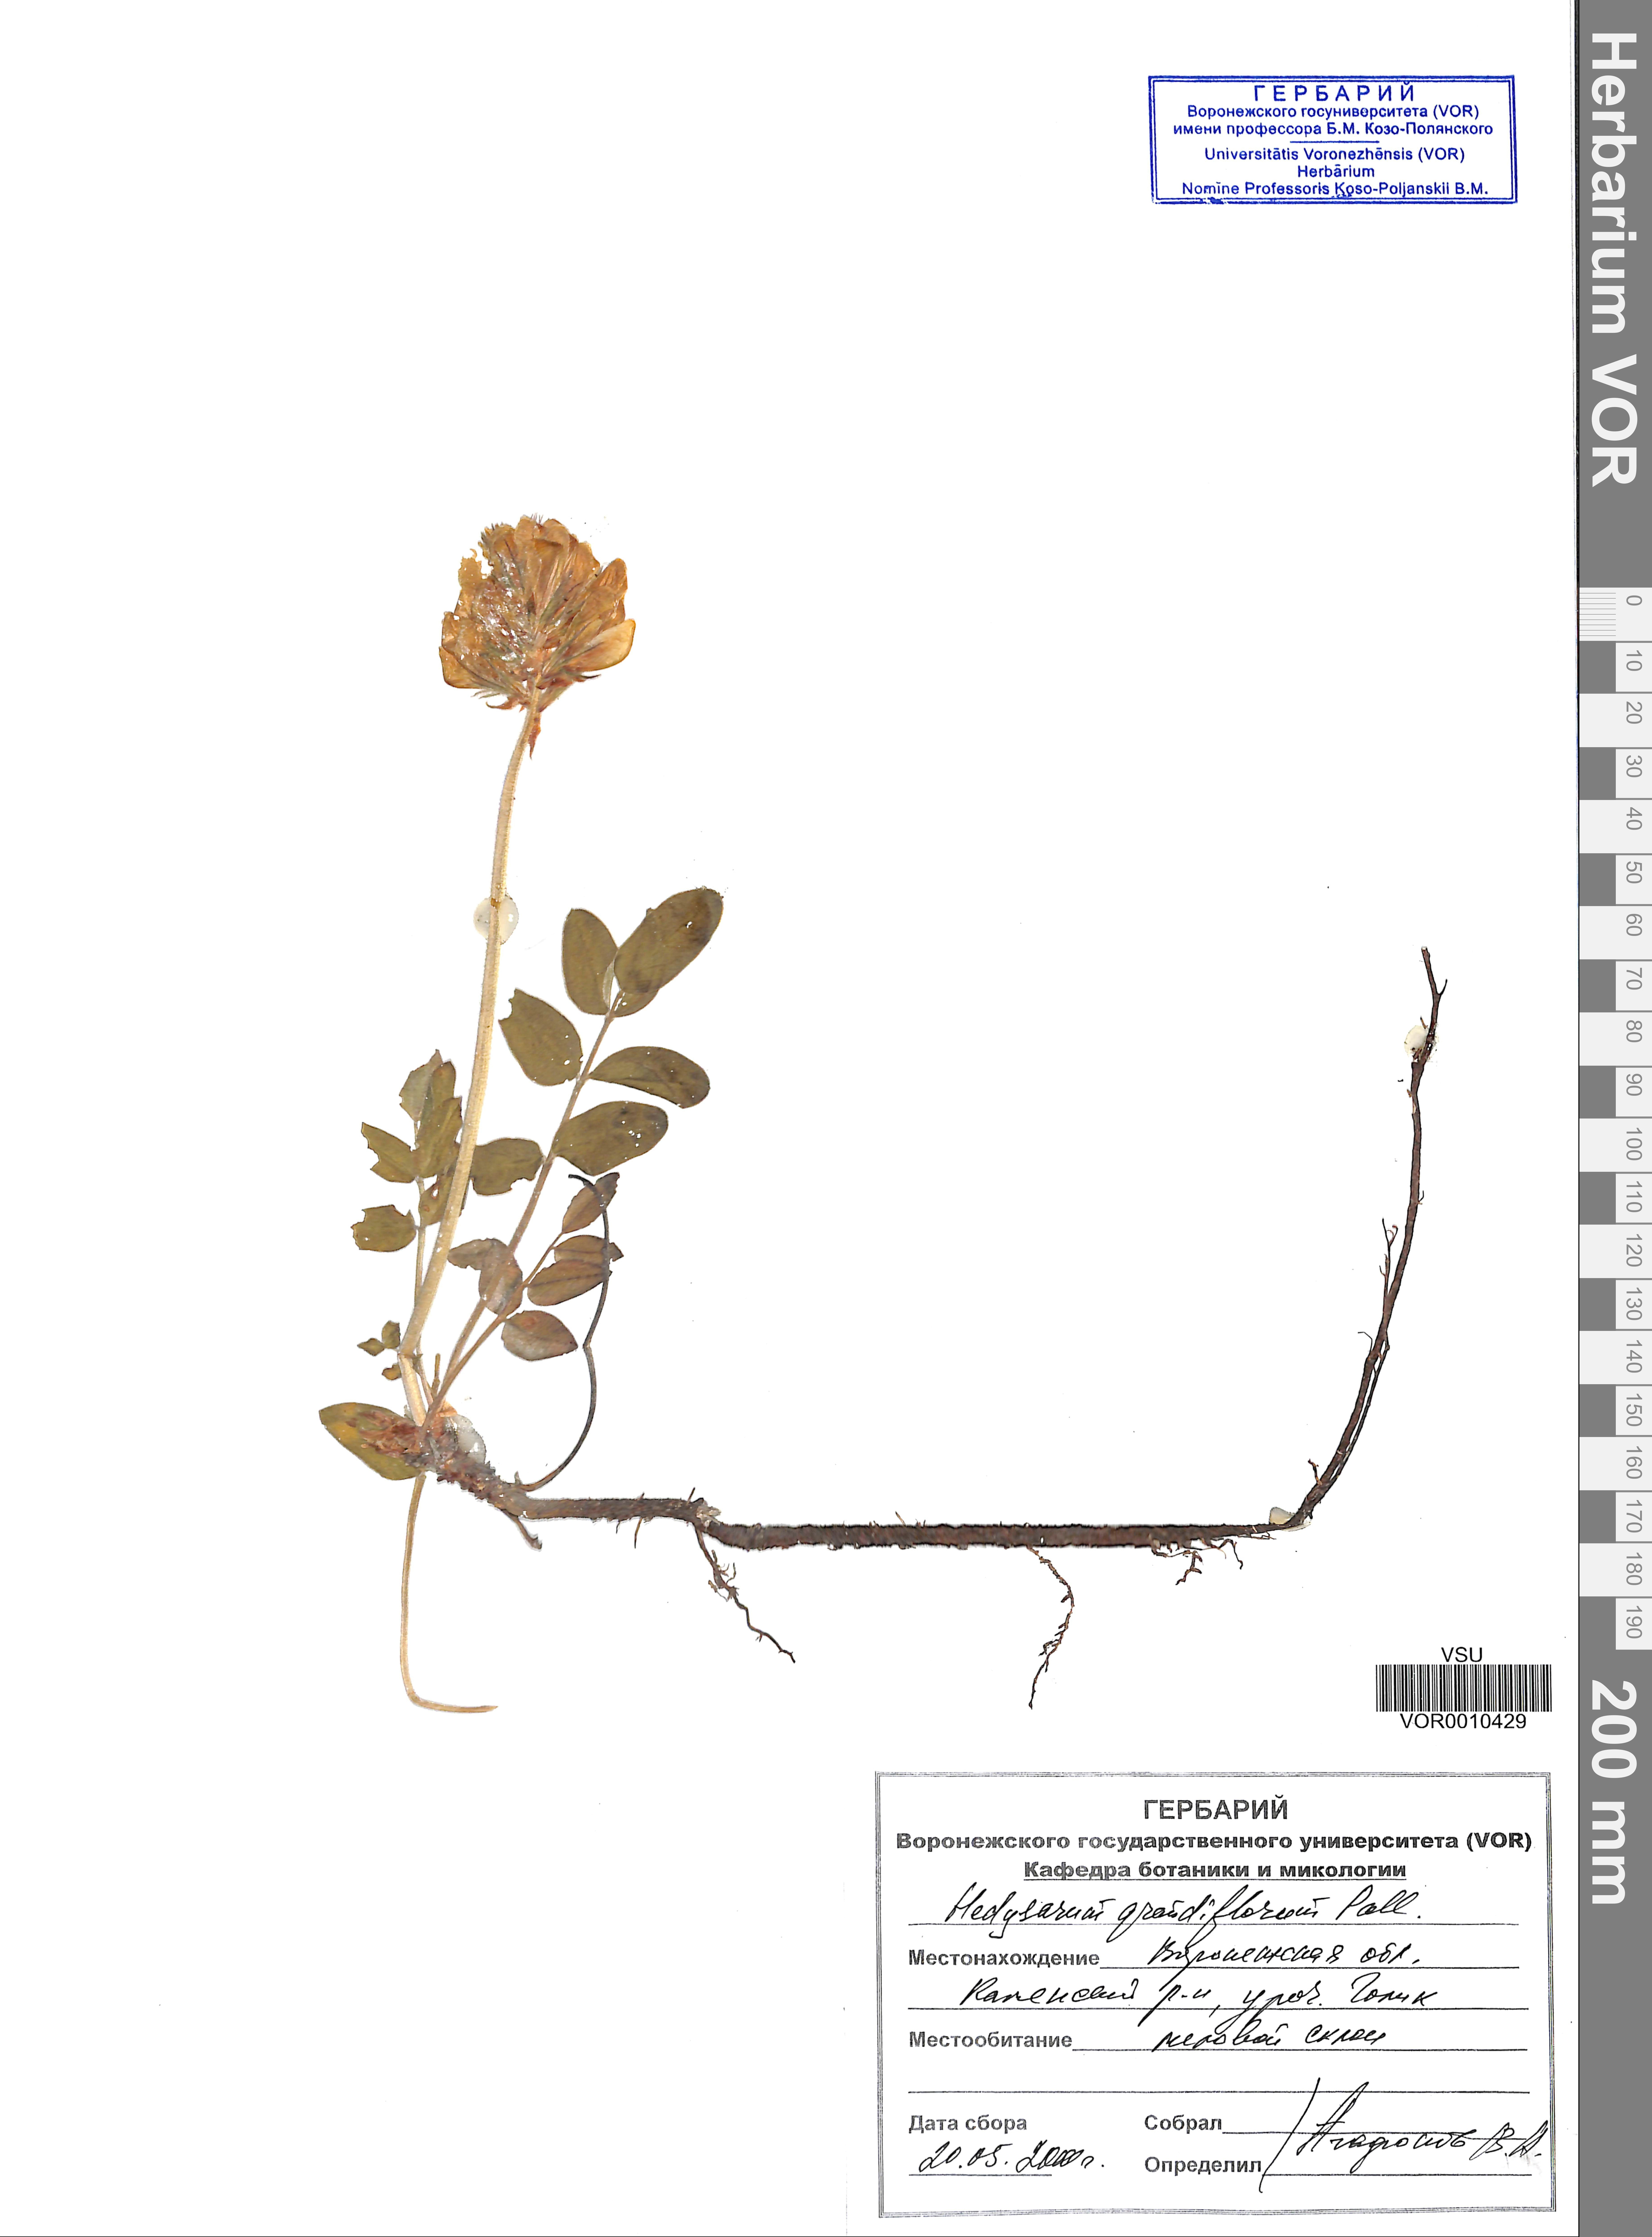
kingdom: Plantae
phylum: Tracheophyta
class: Magnoliopsida
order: Fabales
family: Fabaceae
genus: Hedysarum
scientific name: Hedysarum grandiflorum
